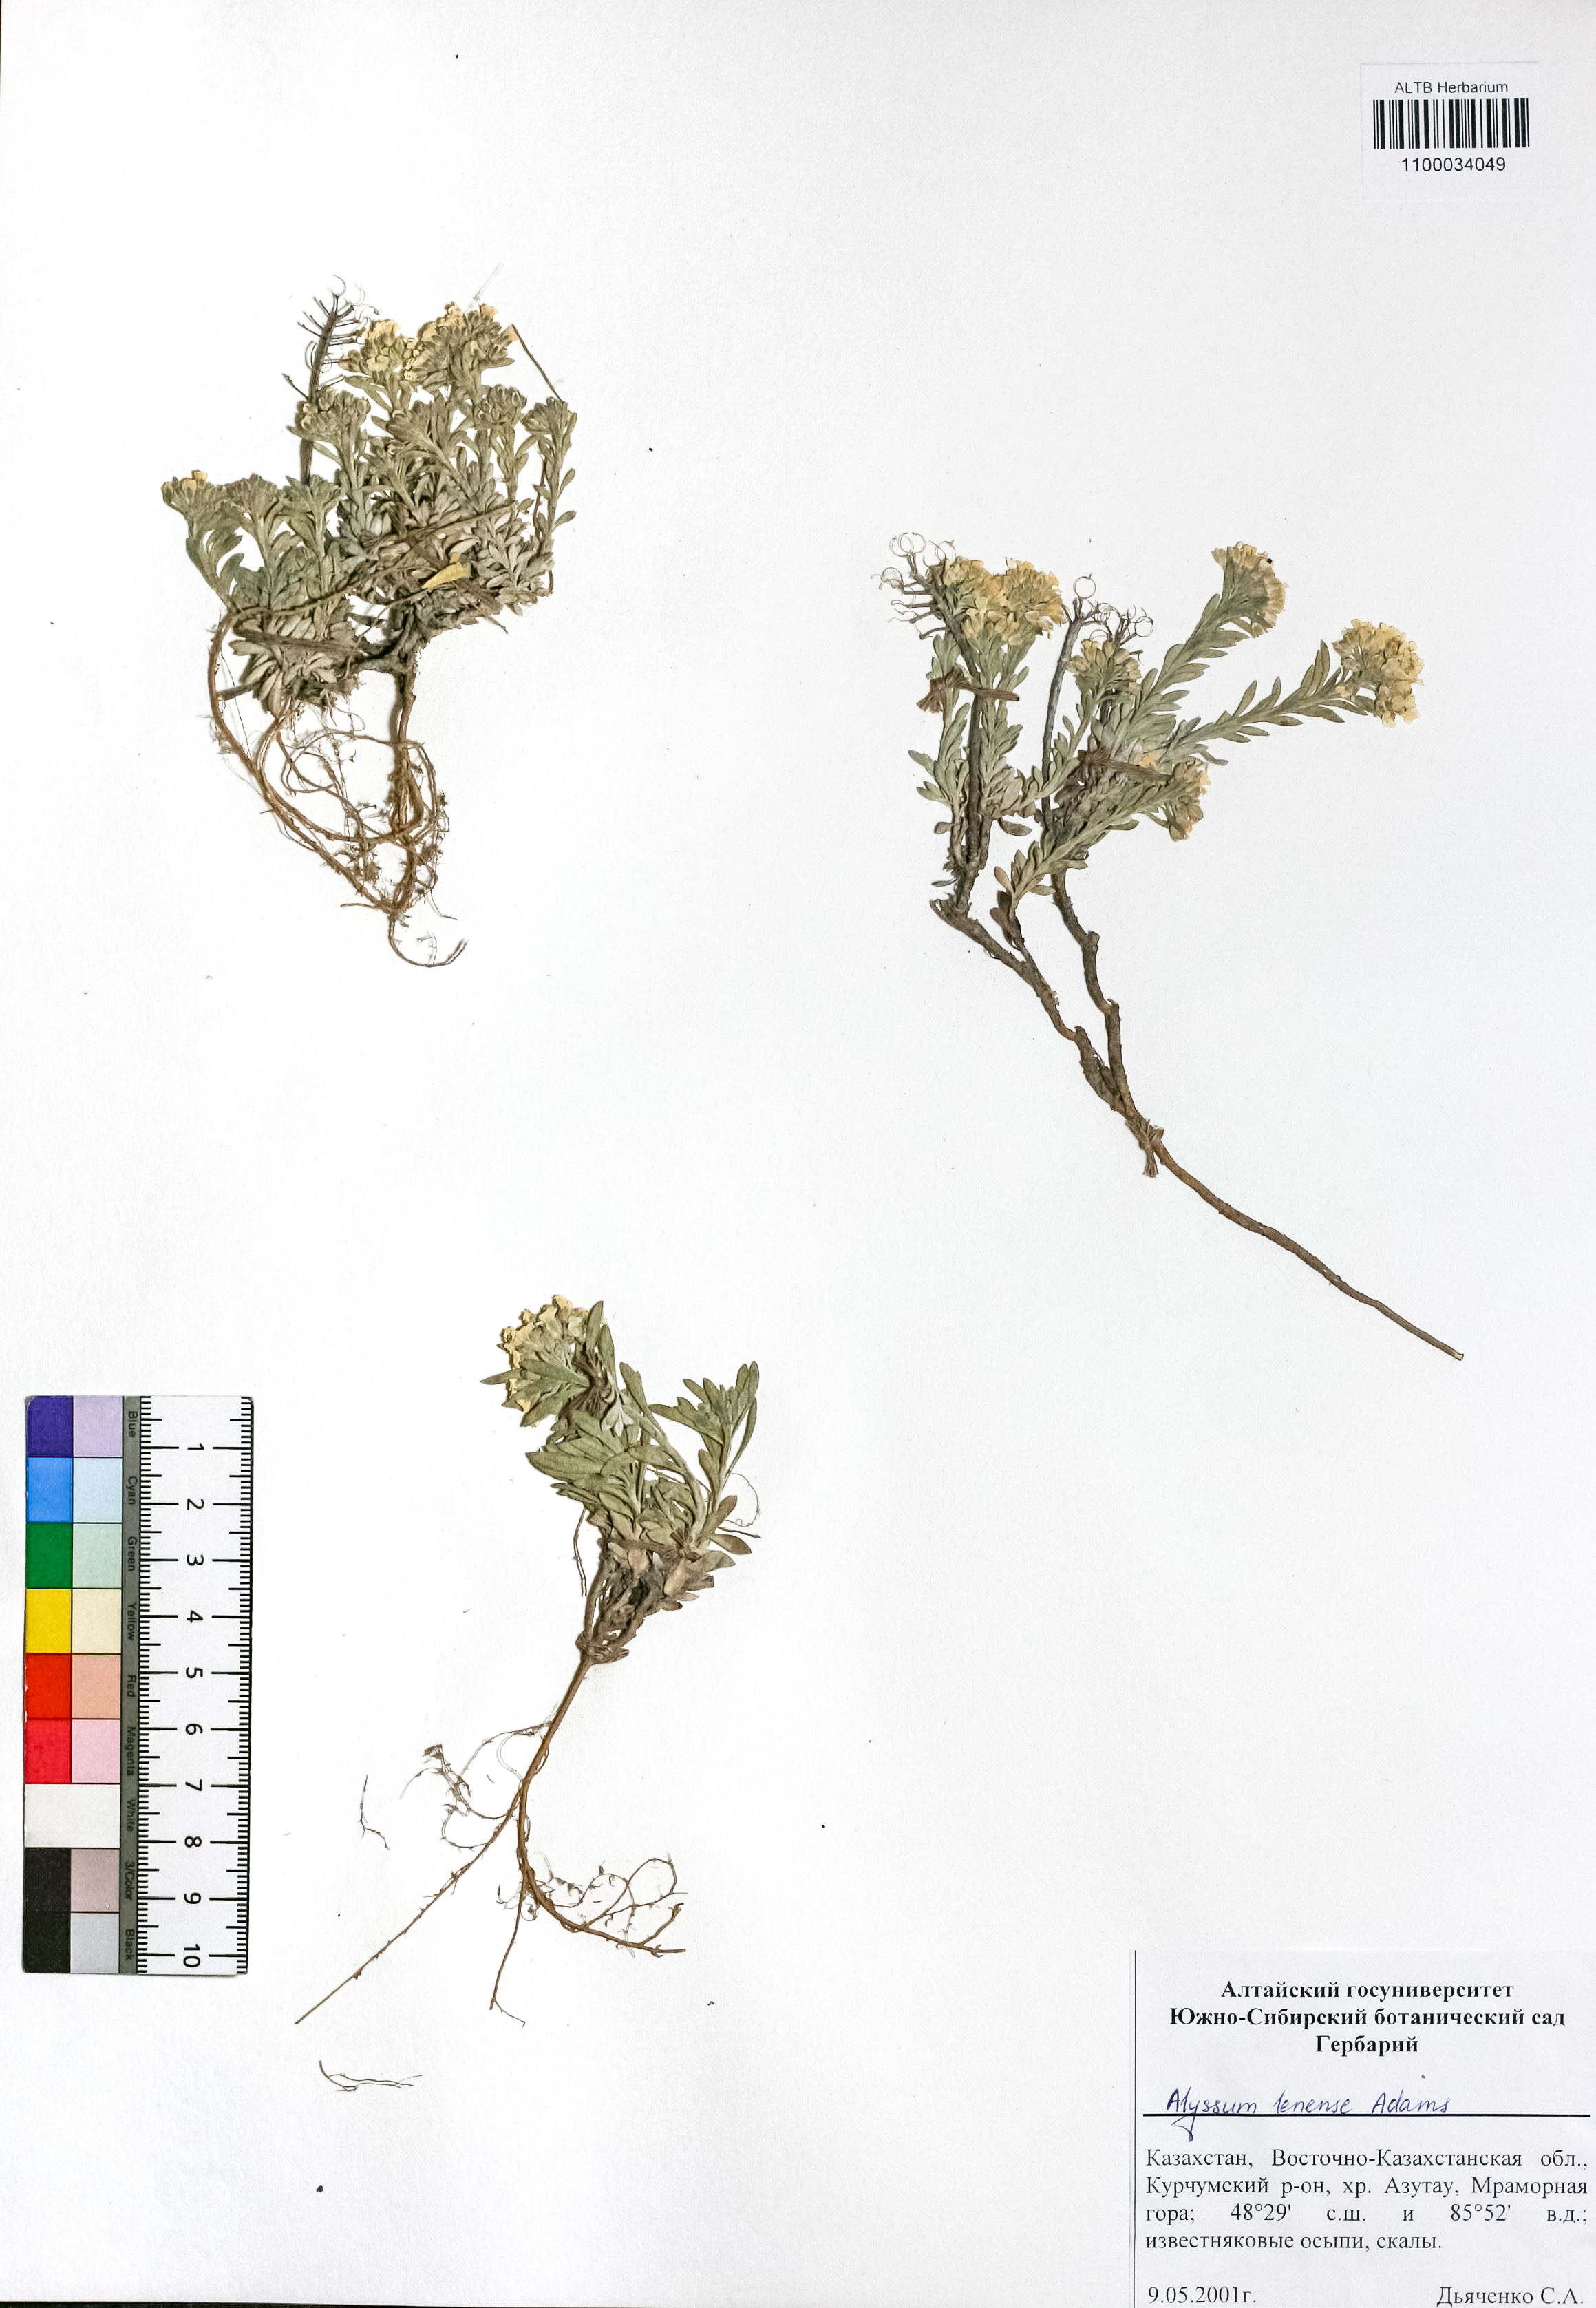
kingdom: Plantae
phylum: Tracheophyta
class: Magnoliopsida
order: Brassicales
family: Brassicaceae
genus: Alyssum
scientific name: Alyssum lenense
